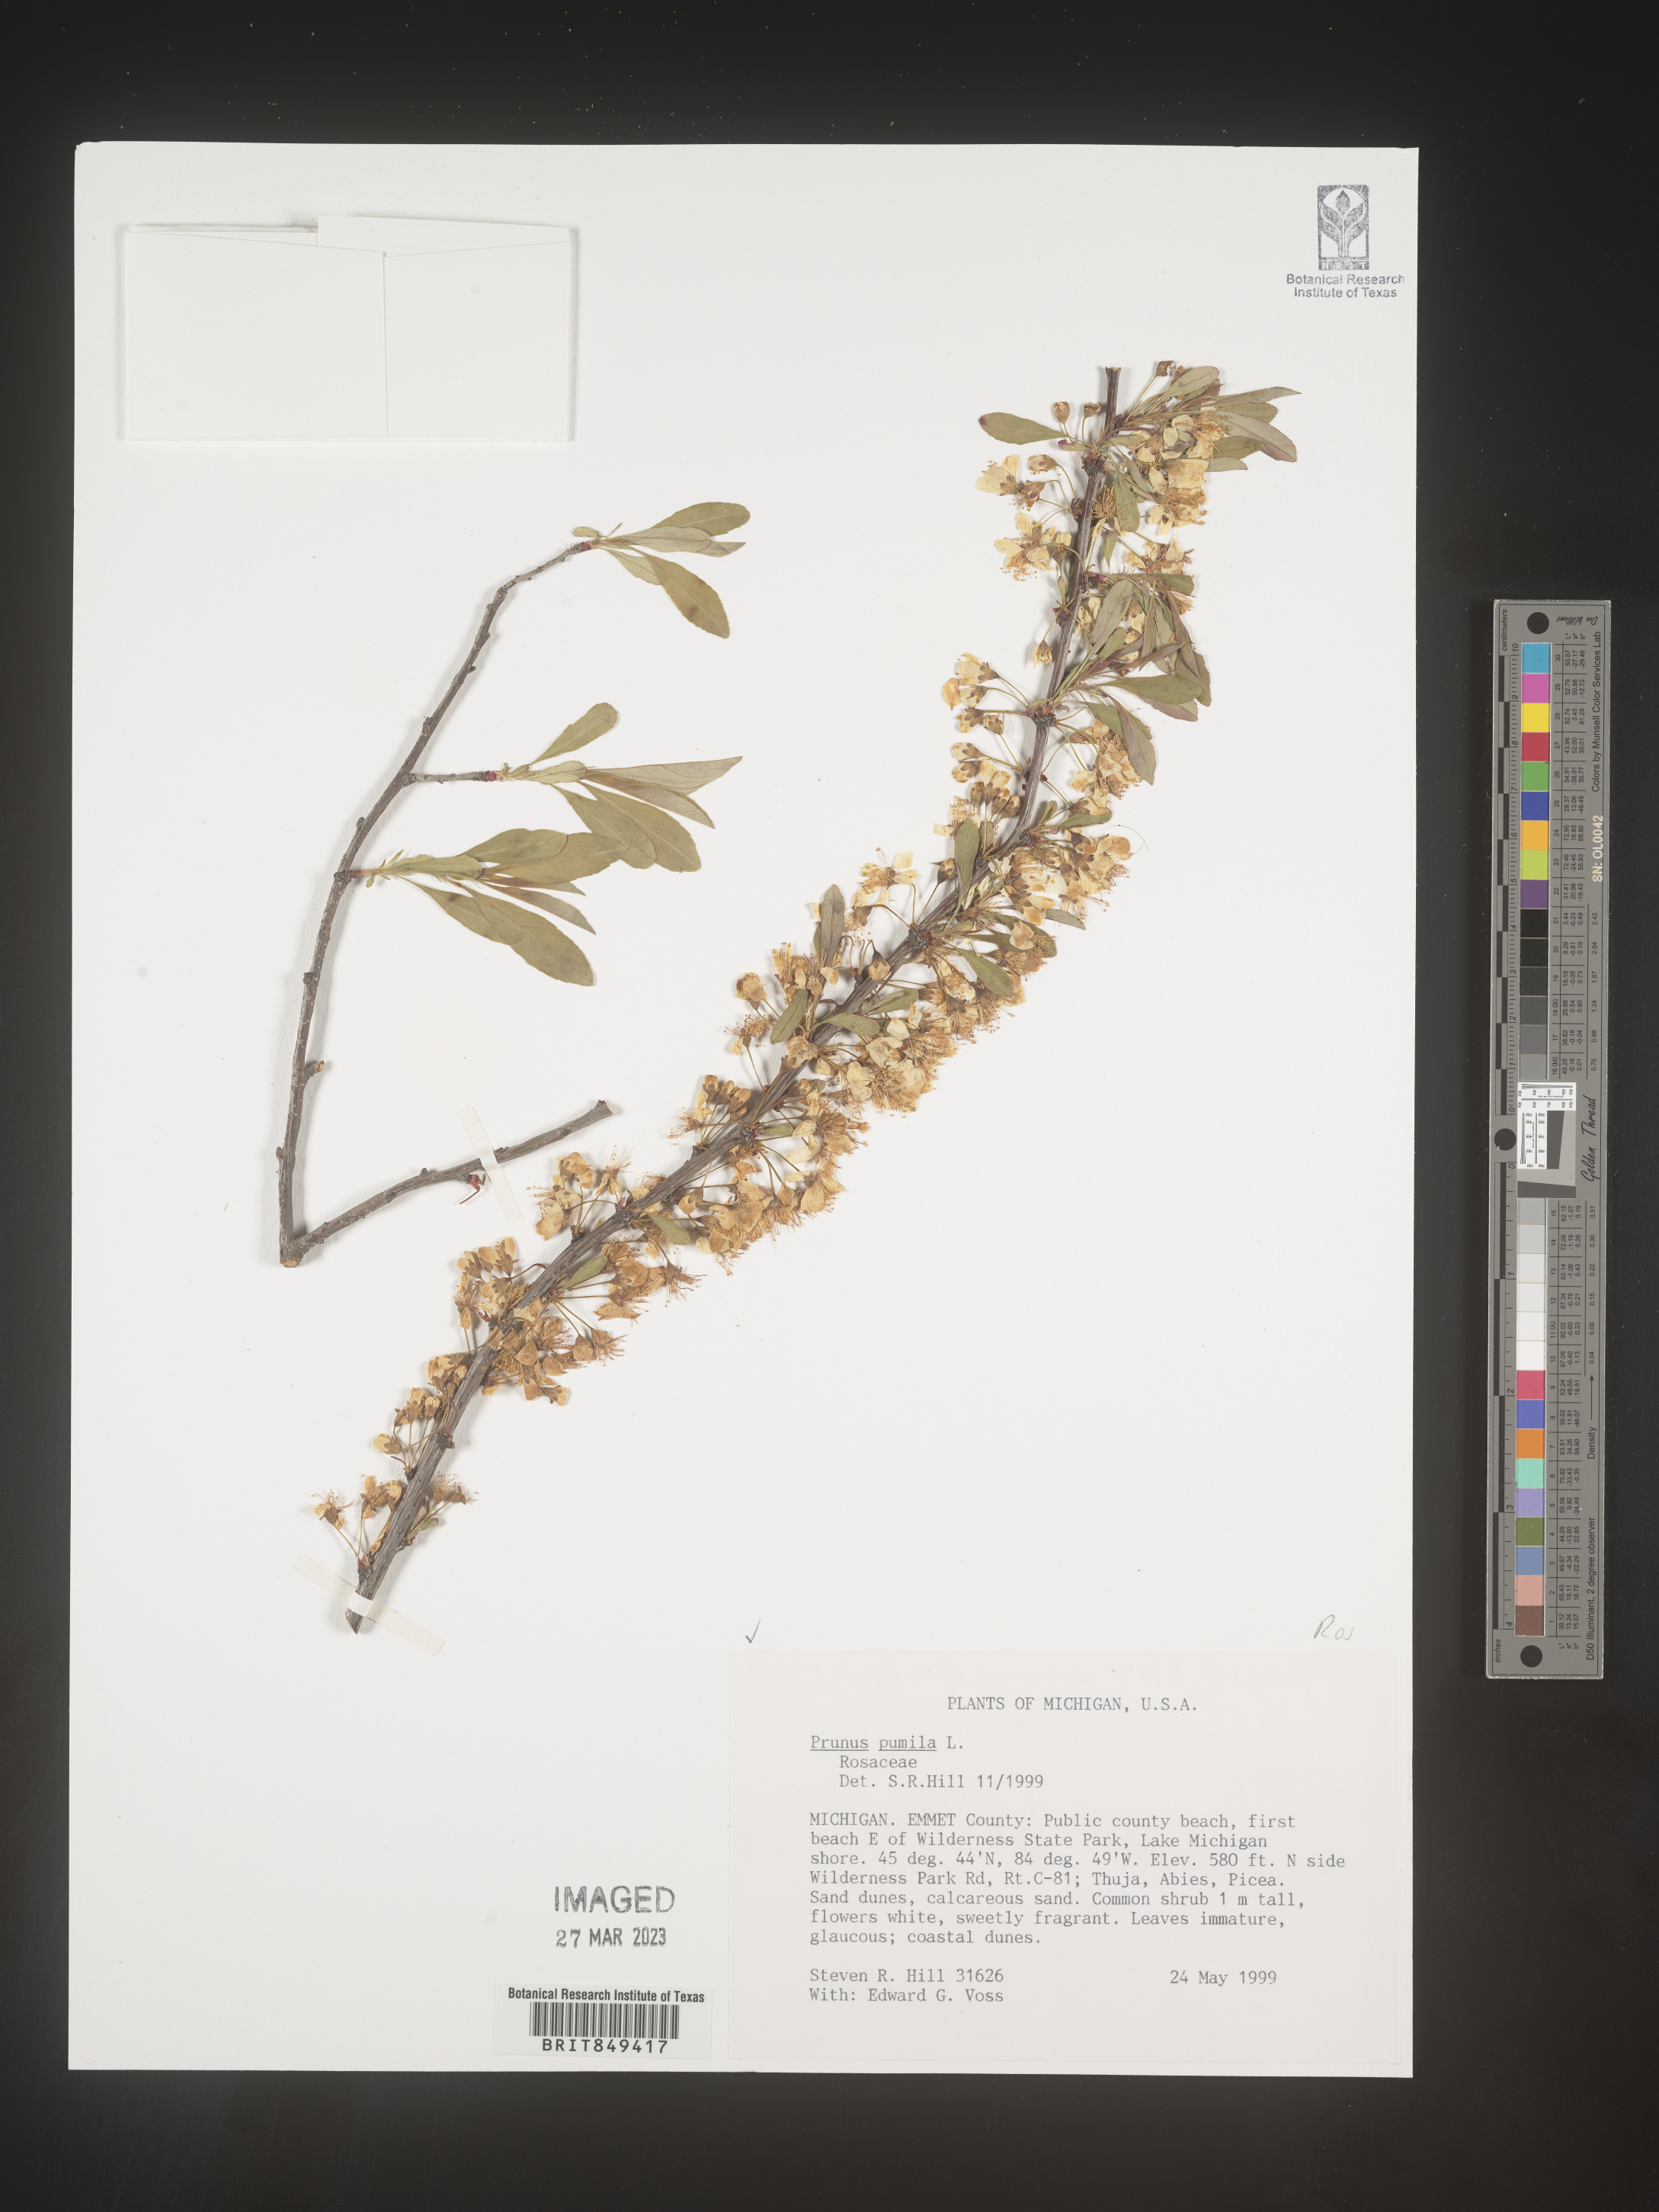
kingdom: Plantae
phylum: Tracheophyta
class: Magnoliopsida
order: Rosales
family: Rosaceae
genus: Prunus
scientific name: Prunus pumila
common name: Dwarf cherry
